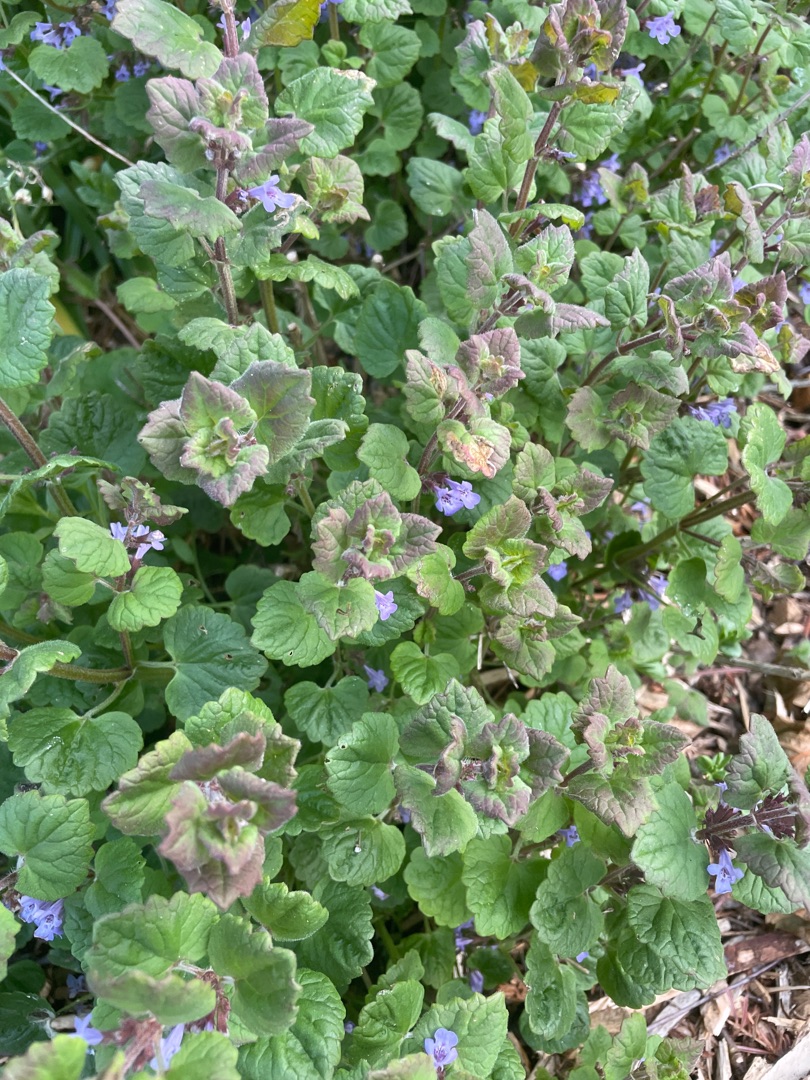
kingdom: Plantae
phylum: Tracheophyta
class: Magnoliopsida
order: Lamiales
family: Lamiaceae
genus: Glechoma
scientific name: Glechoma hederacea
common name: Korsknap
